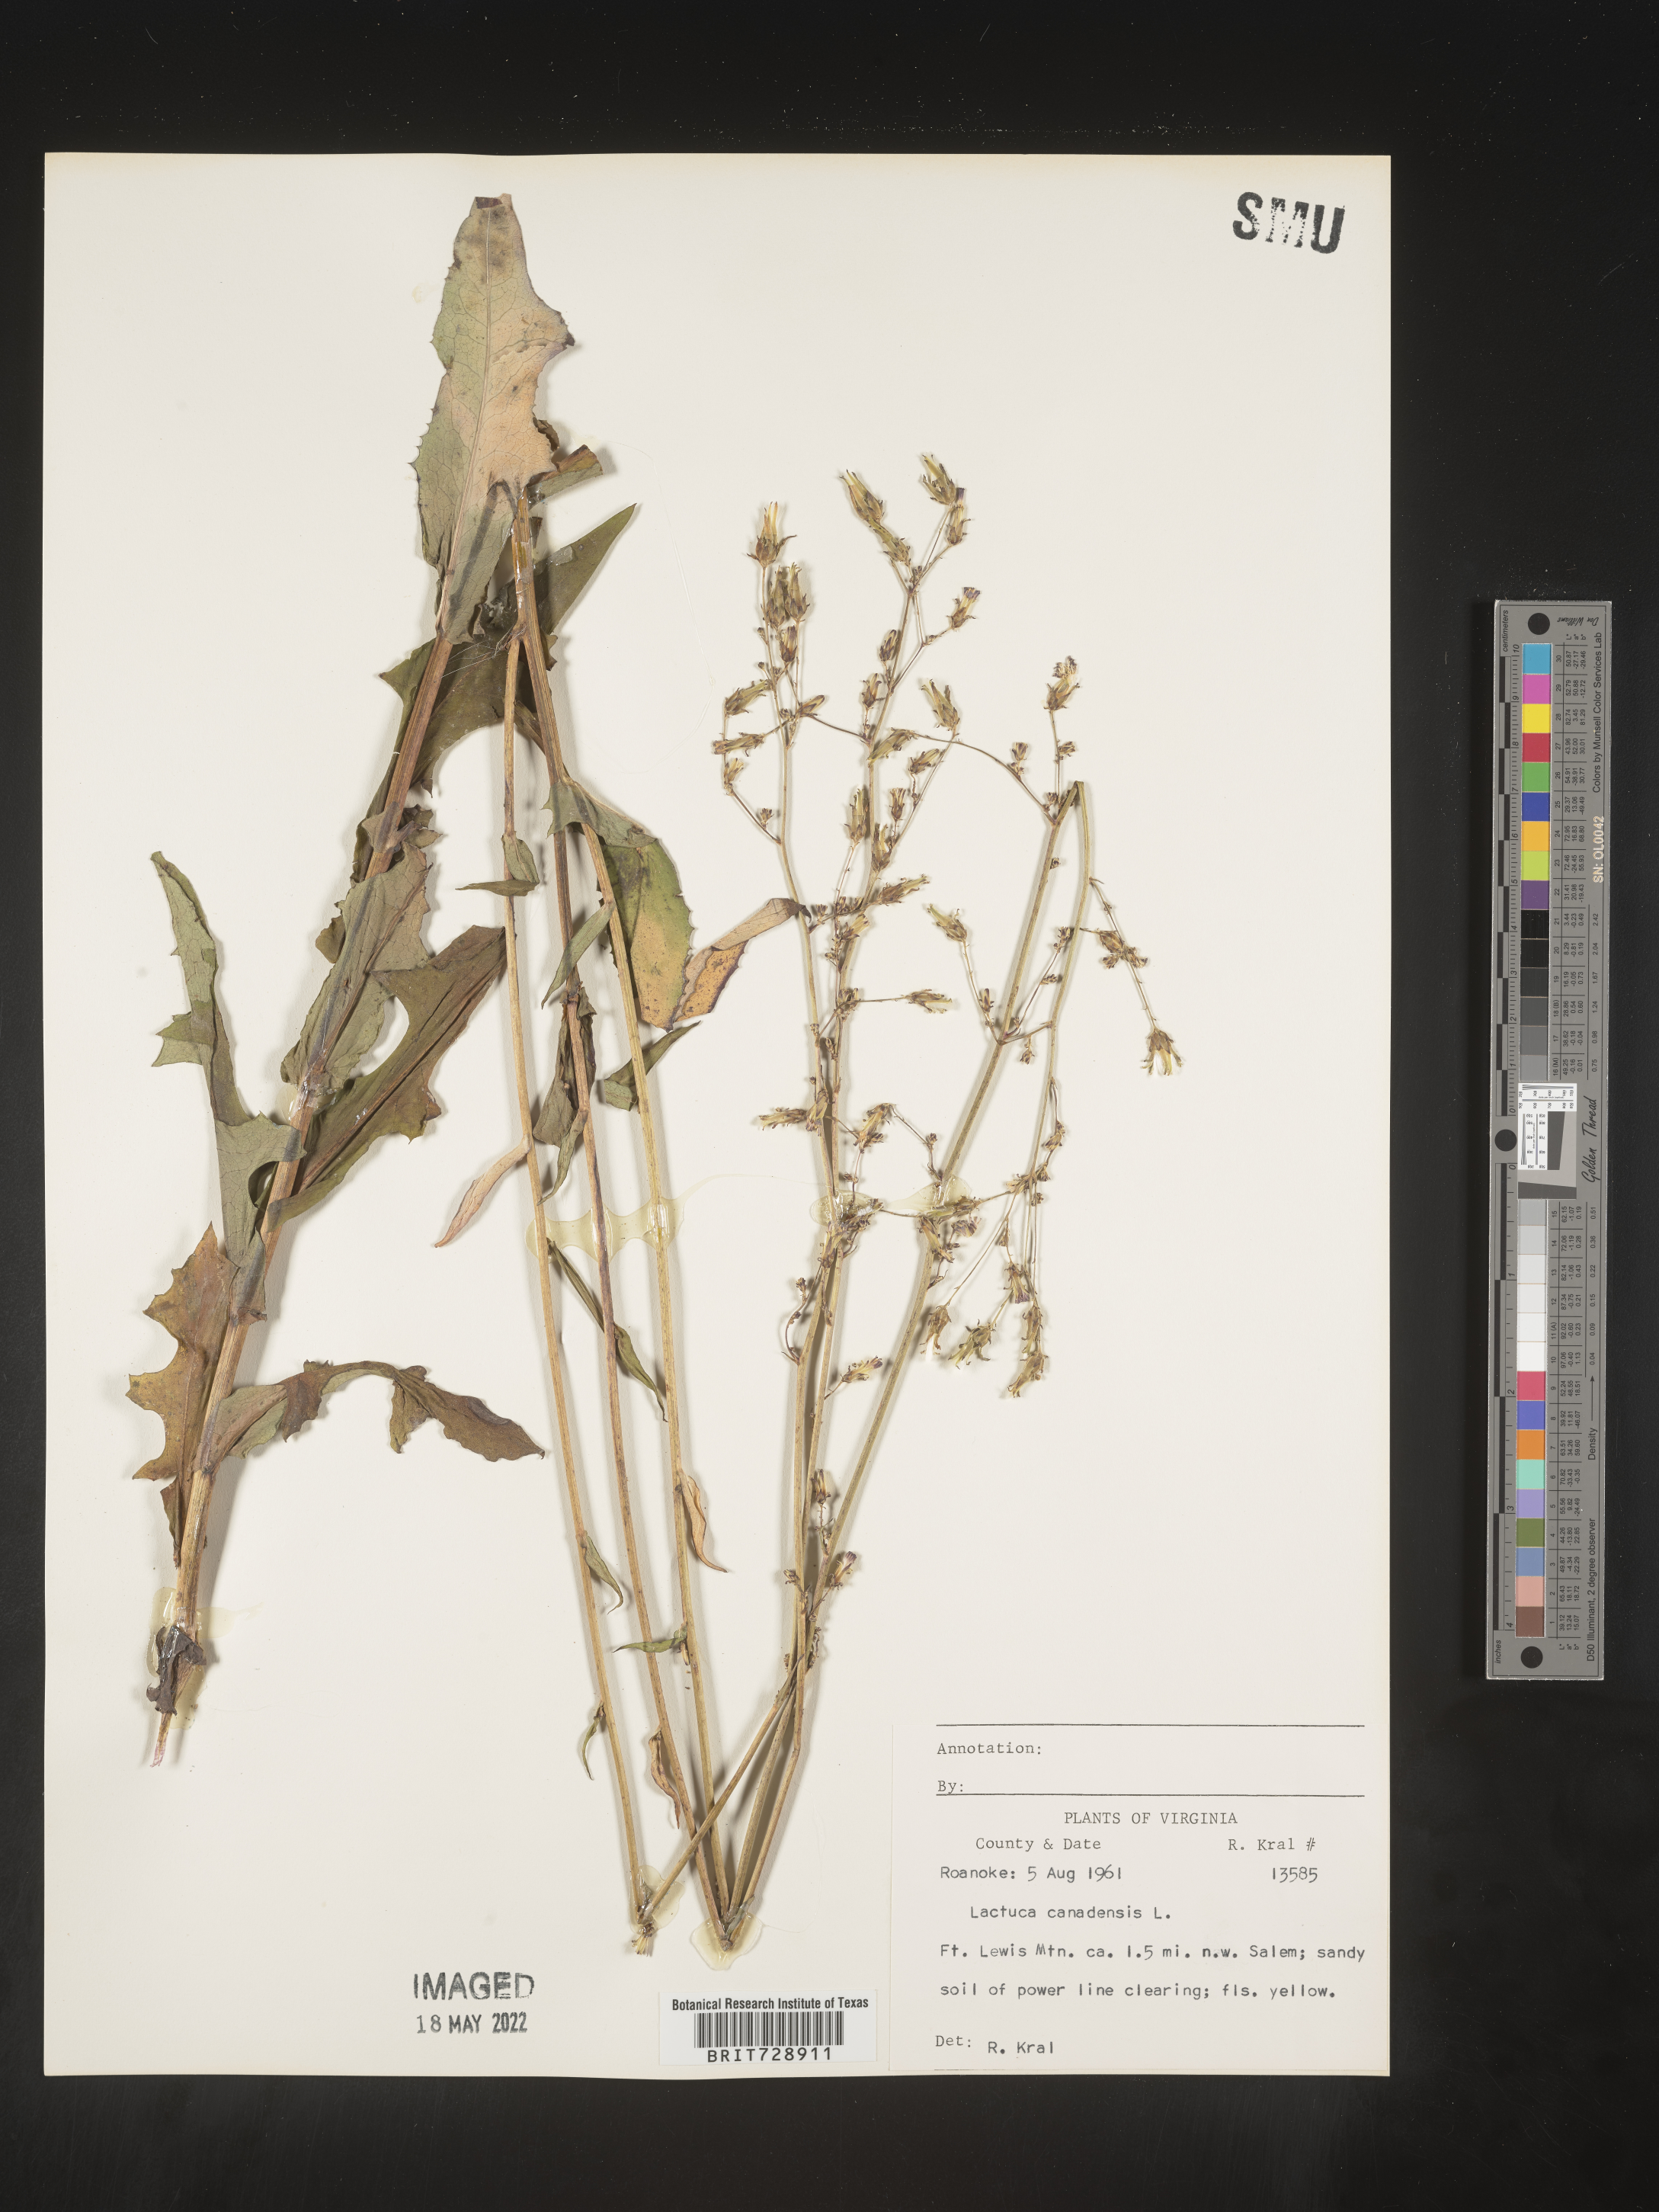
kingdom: Plantae
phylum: Tracheophyta
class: Magnoliopsida
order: Asterales
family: Asteraceae
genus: Lactuca
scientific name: Lactuca canadensis
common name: Canada lettuce
